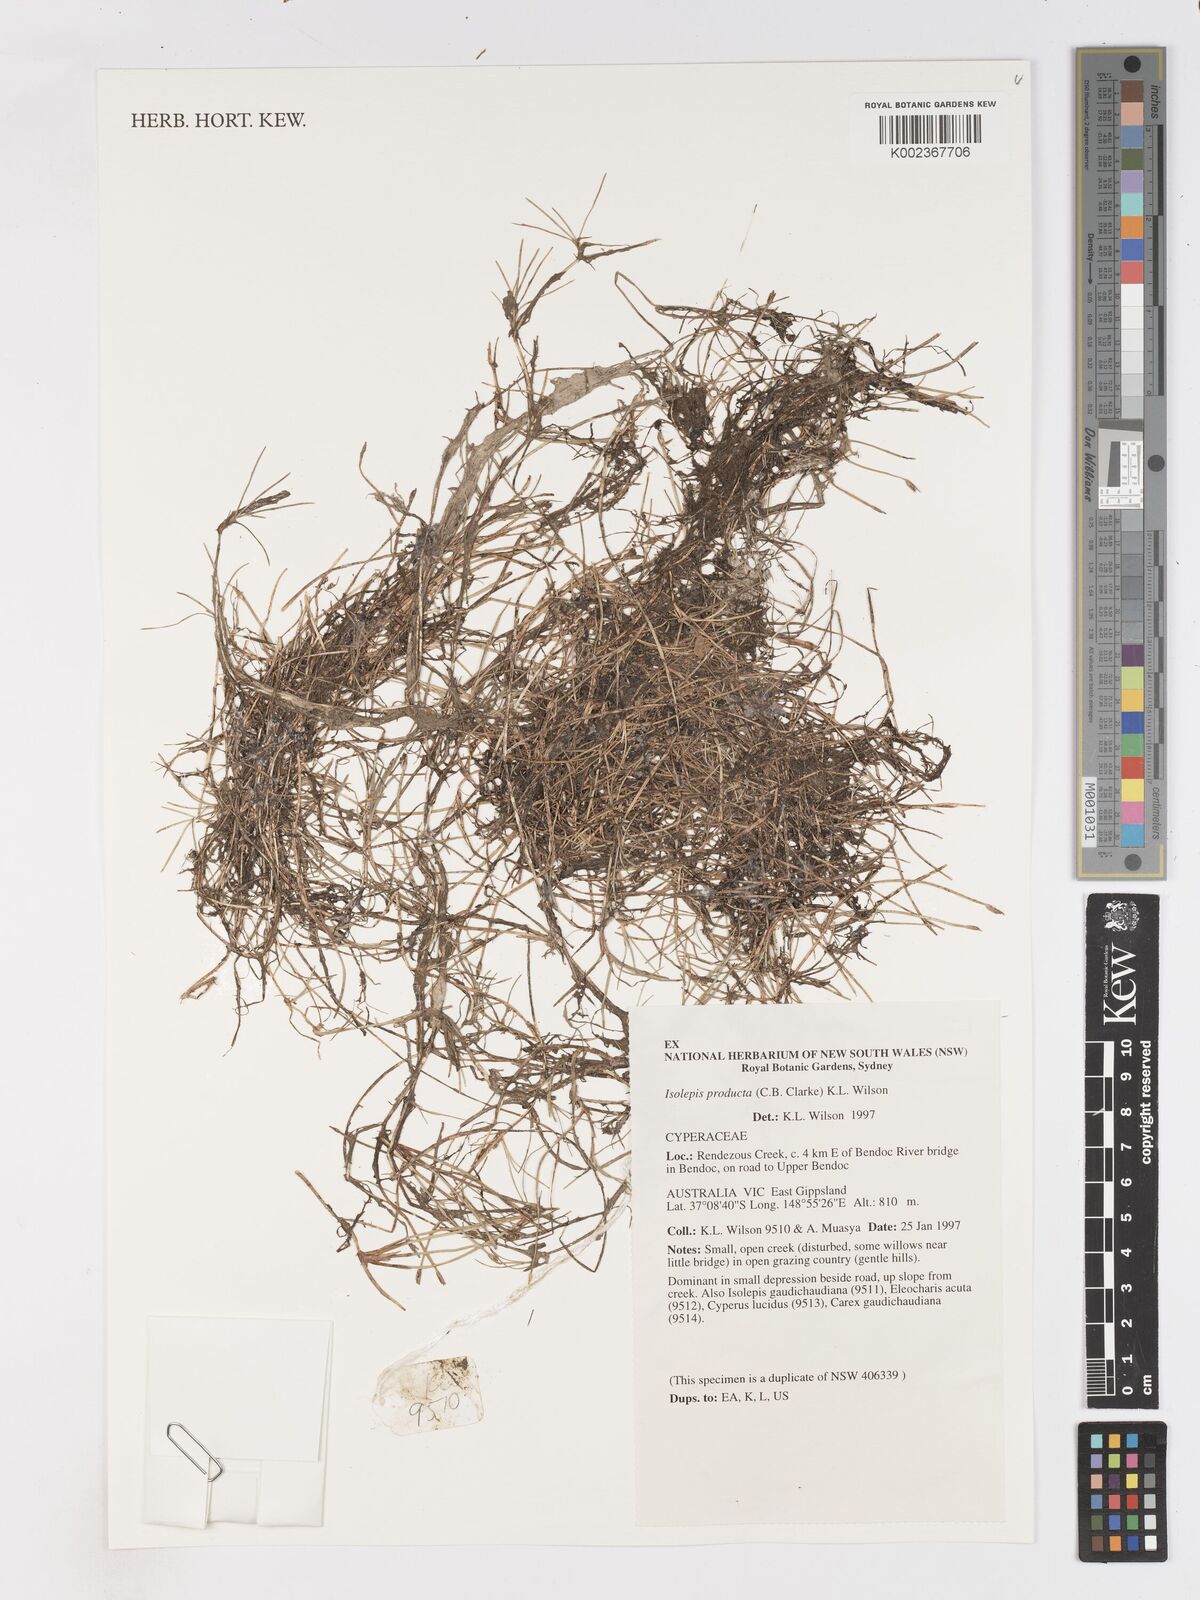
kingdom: Plantae
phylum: Tracheophyta
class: Liliopsida
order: Poales
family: Cyperaceae
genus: Isolepis
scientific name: Isolepis producta
